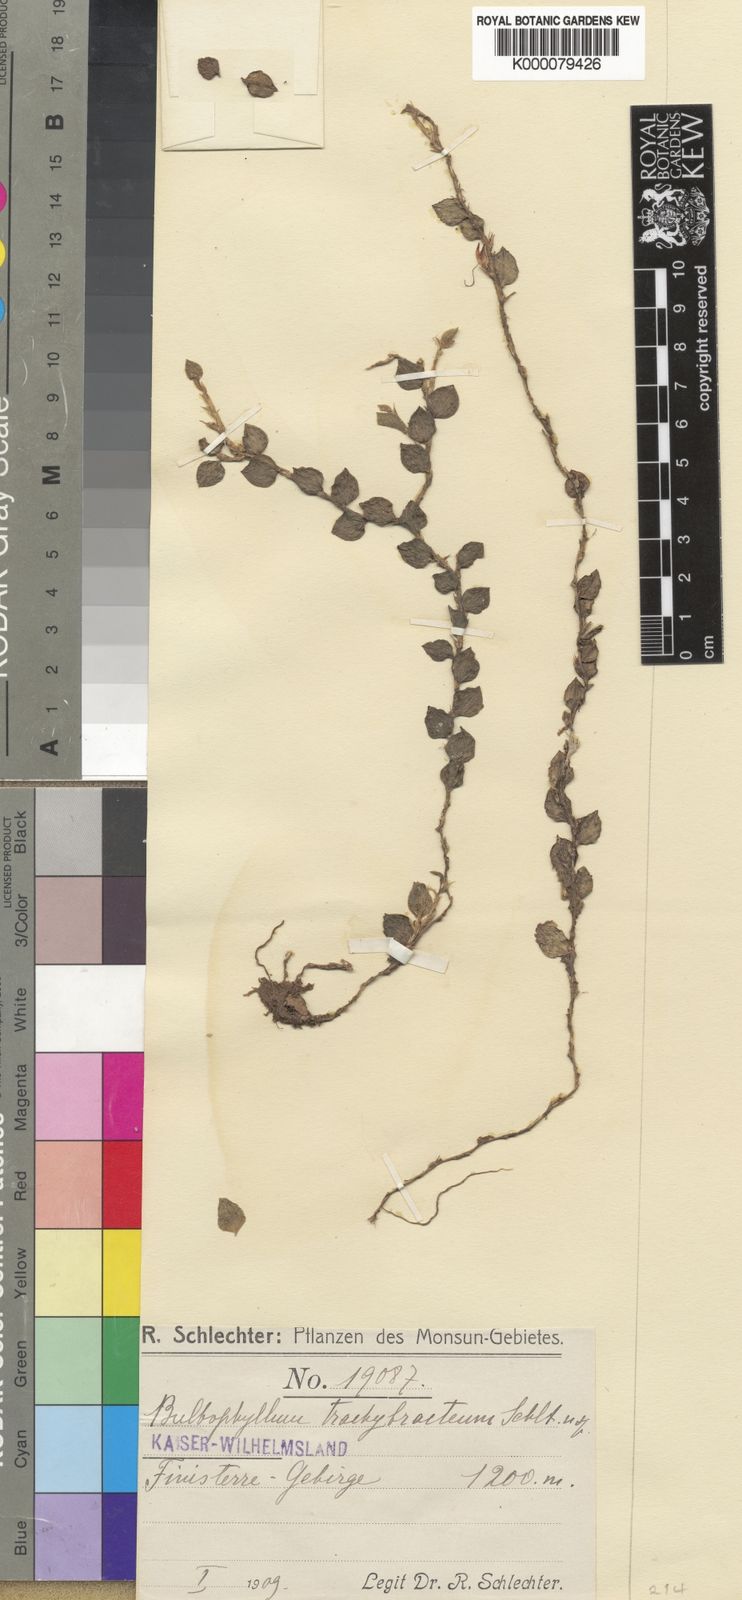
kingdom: Plantae
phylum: Tracheophyta
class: Liliopsida
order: Asparagales
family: Orchidaceae
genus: Bulbophyllum
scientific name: Bulbophyllum trachybracteum
